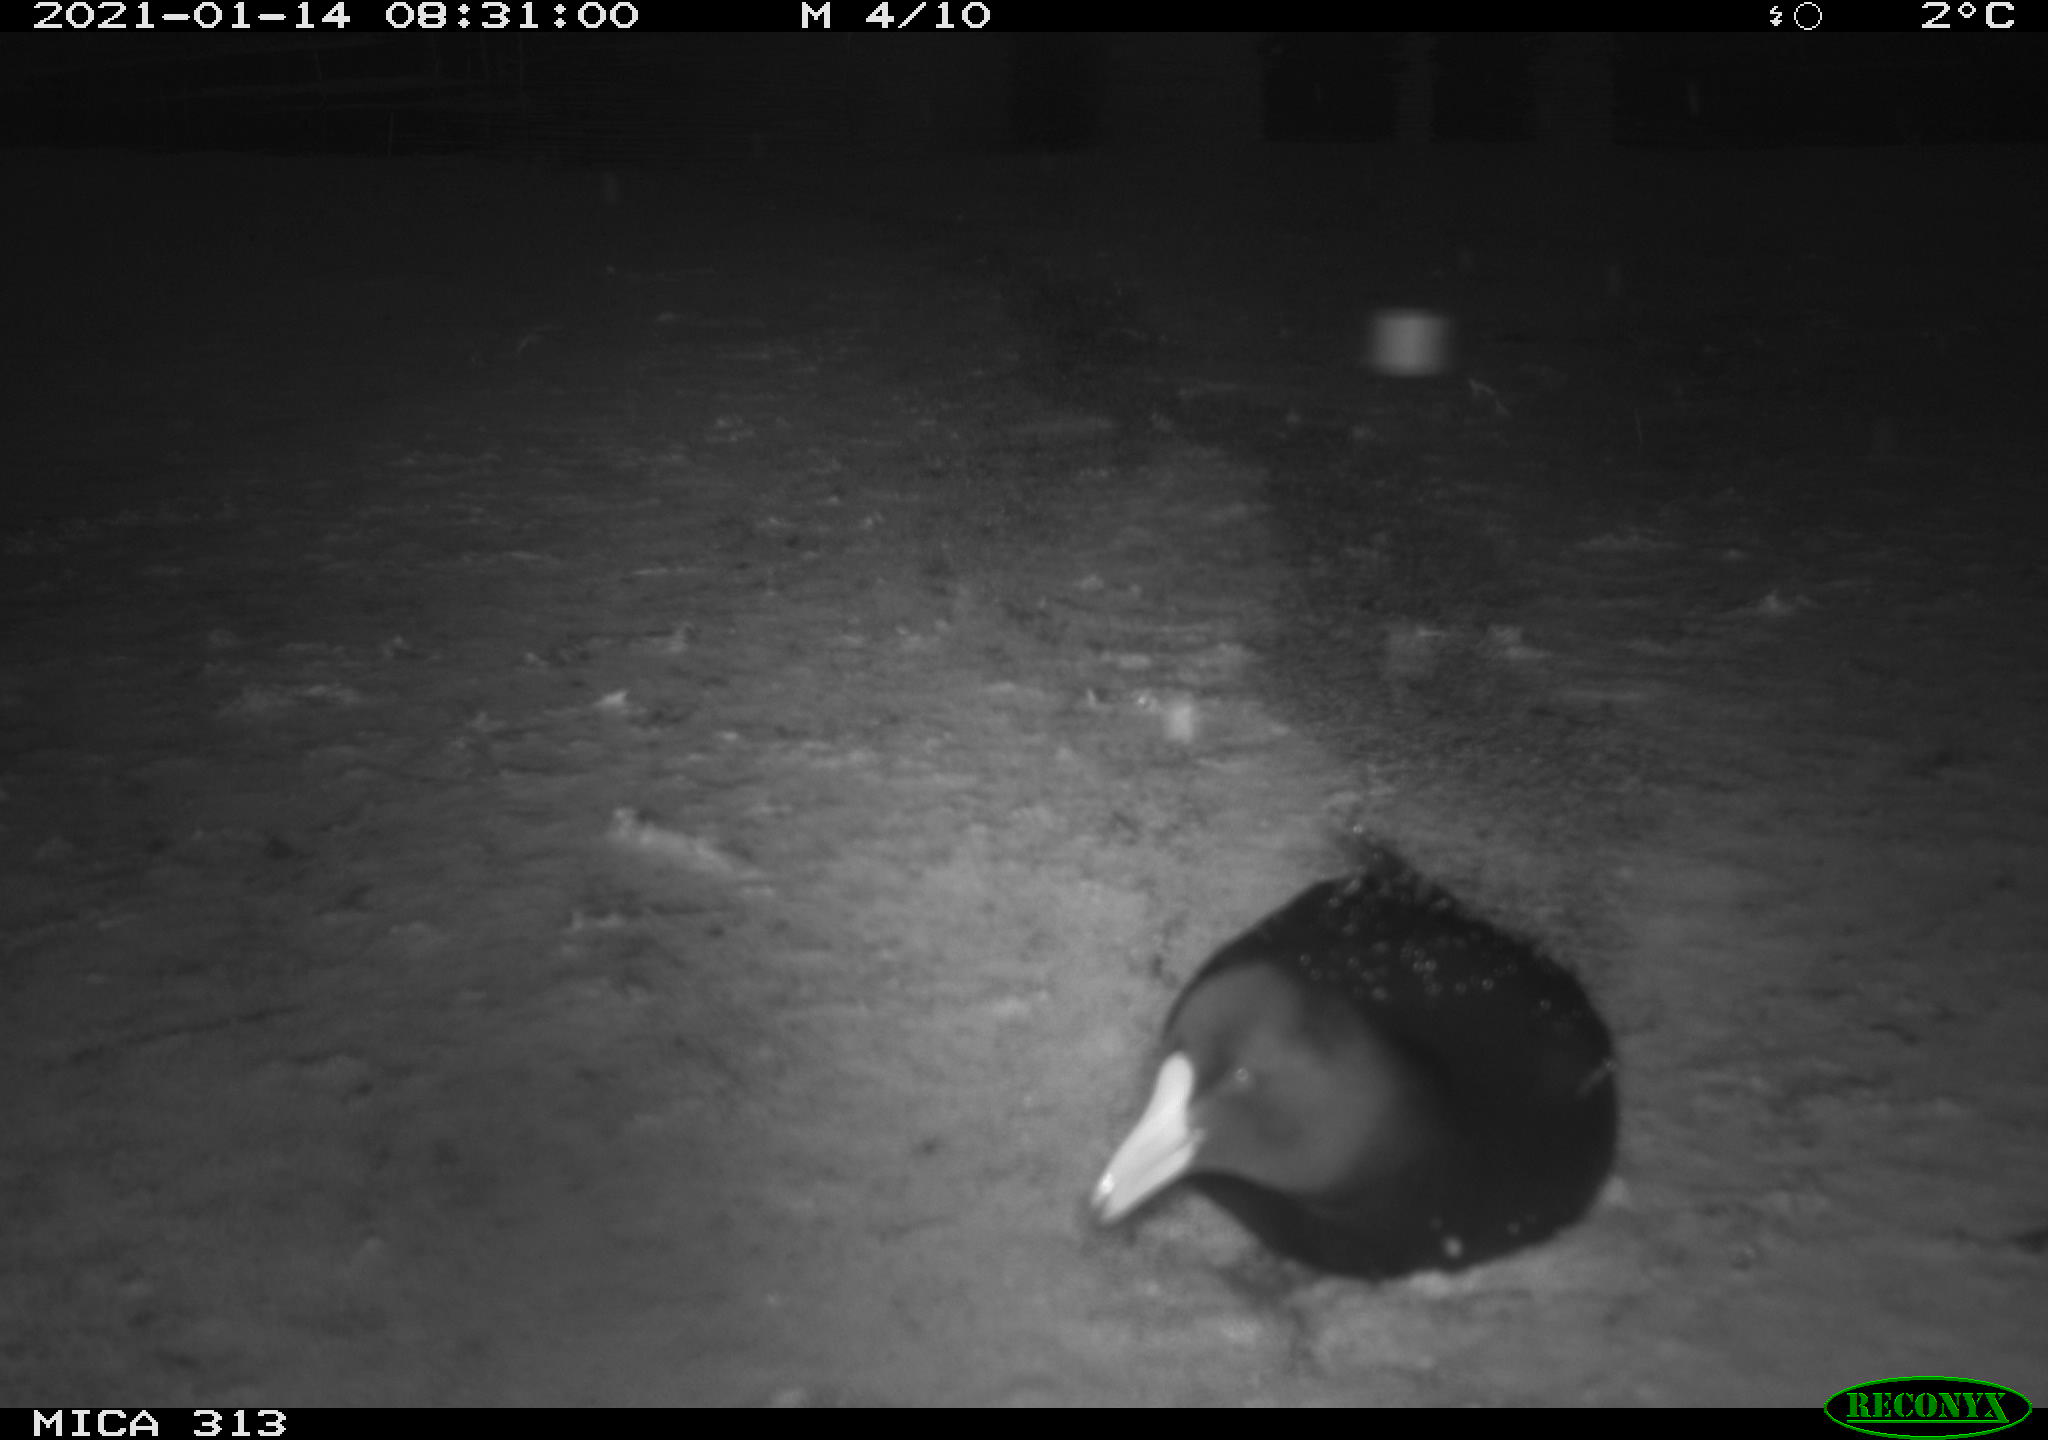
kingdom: Animalia
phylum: Chordata
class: Aves
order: Gruiformes
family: Rallidae
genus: Gallinula
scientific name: Gallinula chloropus
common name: Common moorhen
